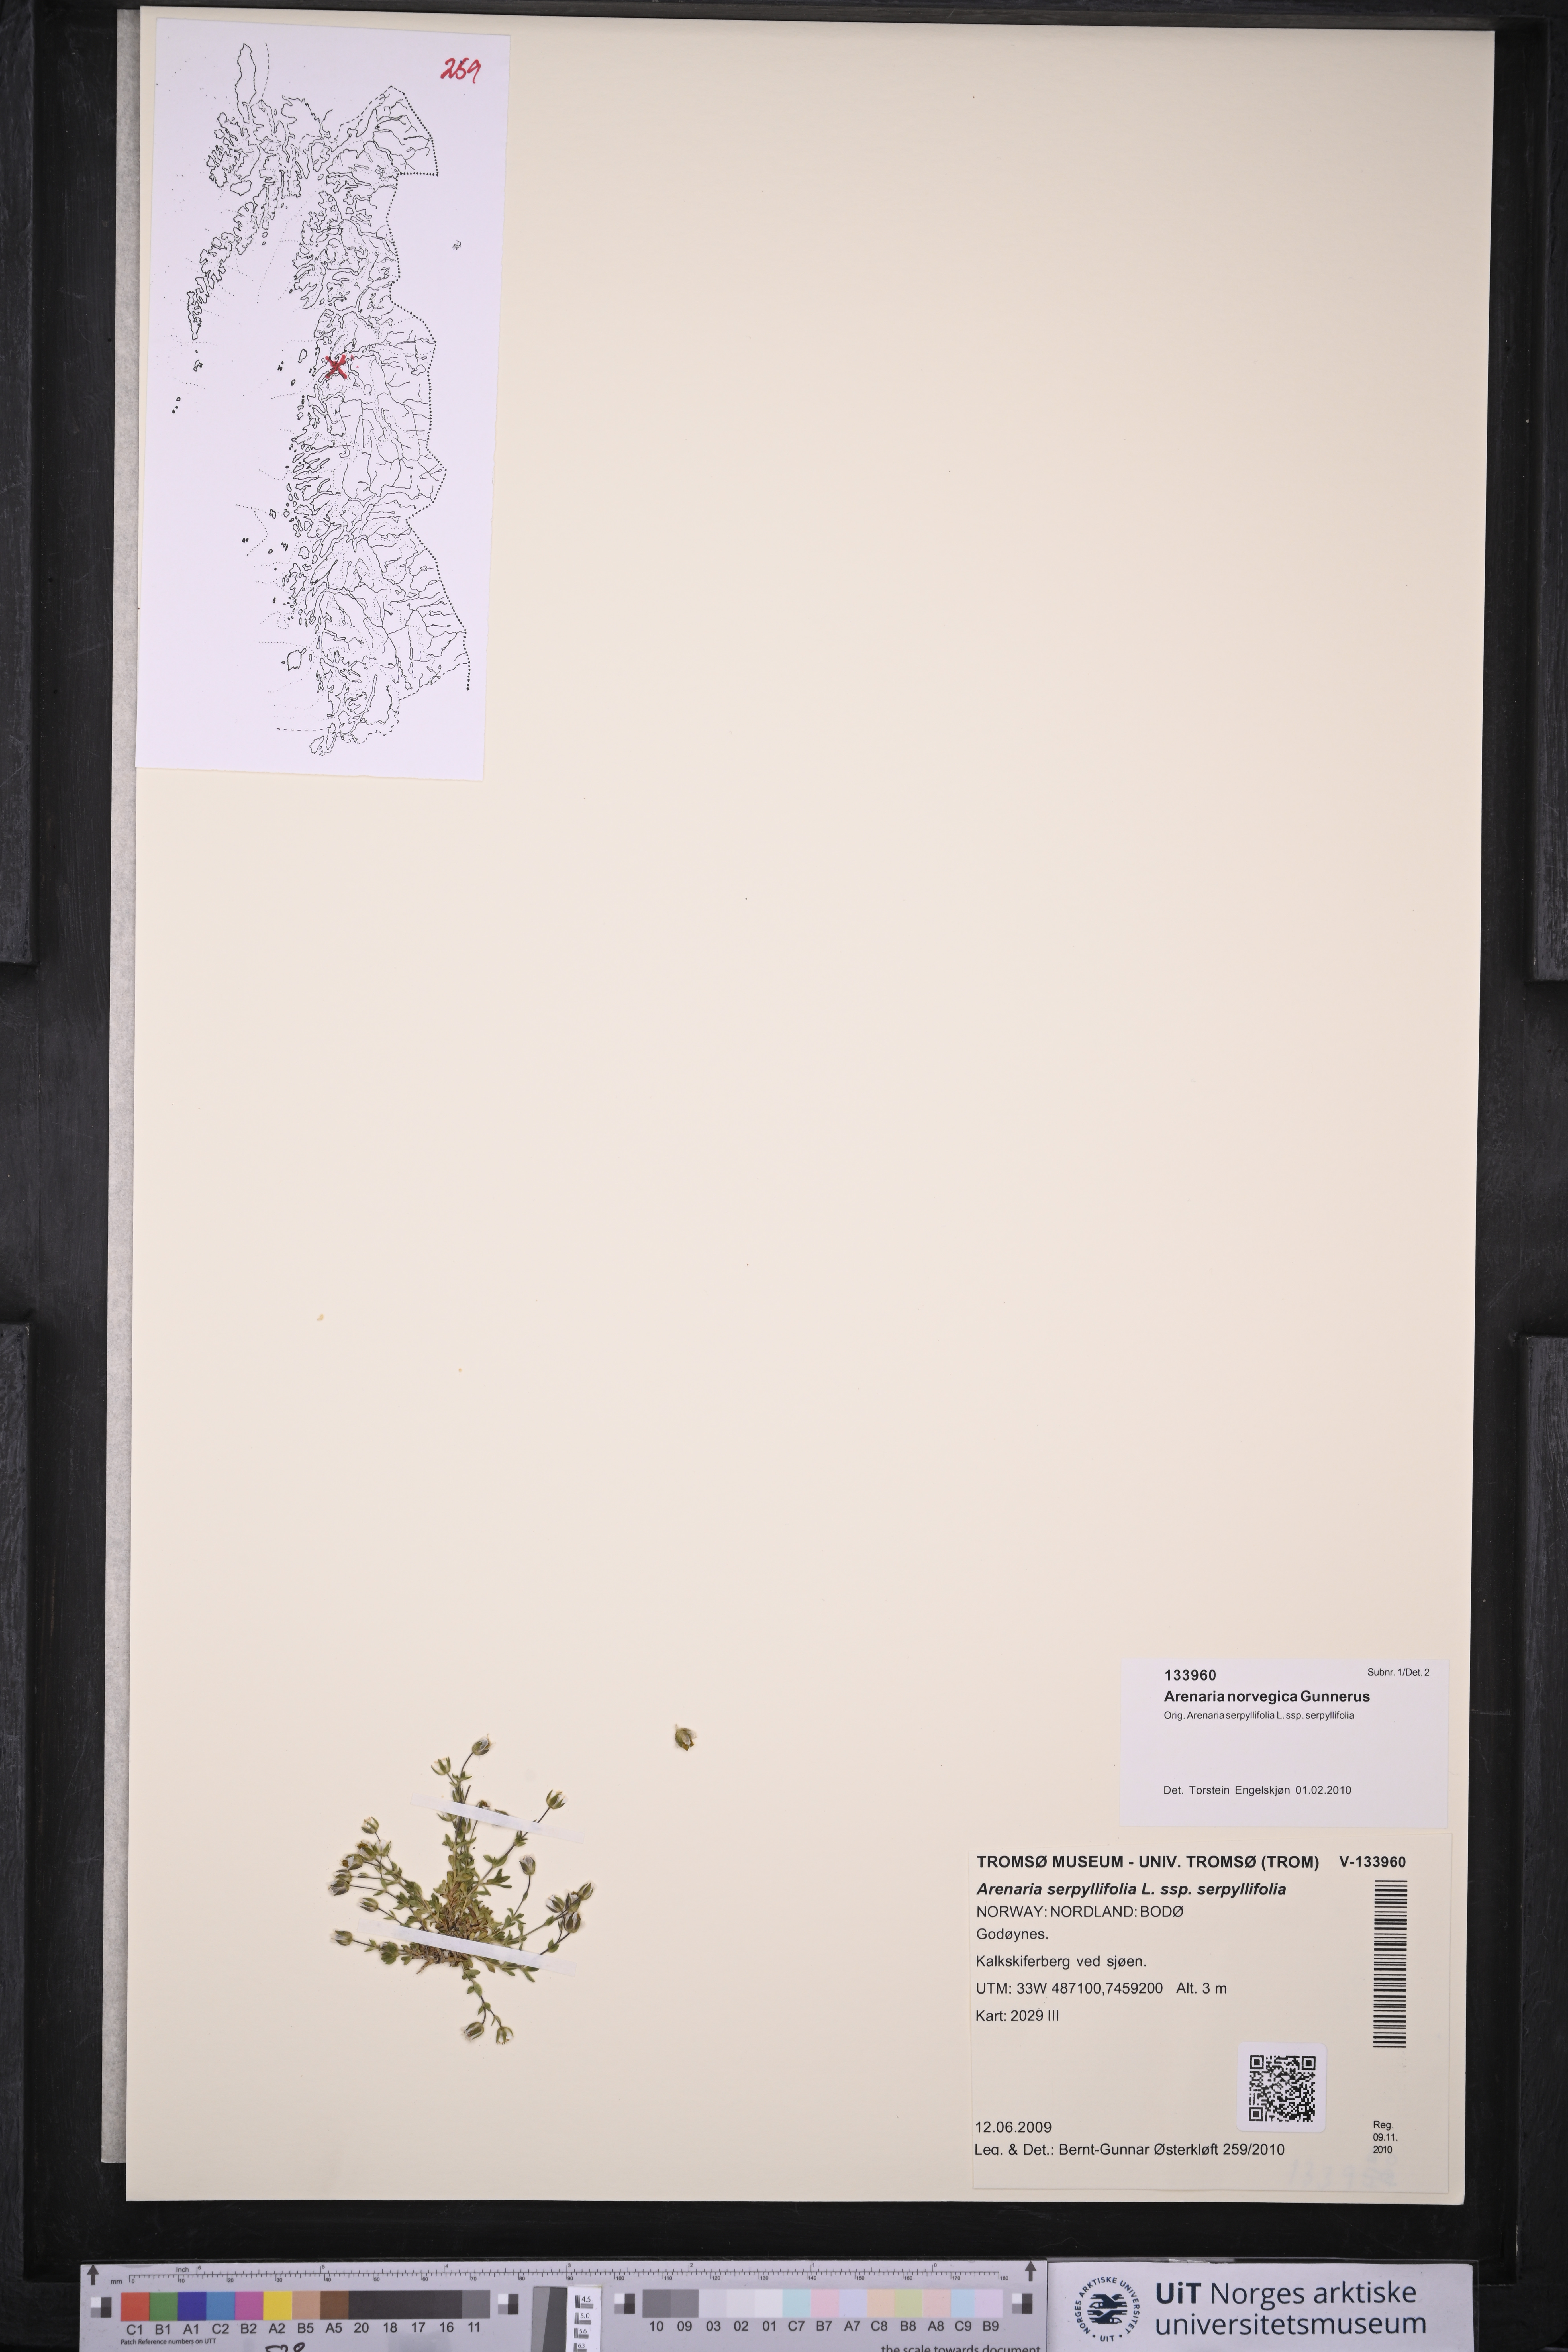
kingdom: Plantae
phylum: Tracheophyta
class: Magnoliopsida
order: Caryophyllales
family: Caryophyllaceae
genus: Arenaria
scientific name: Arenaria norvegica
